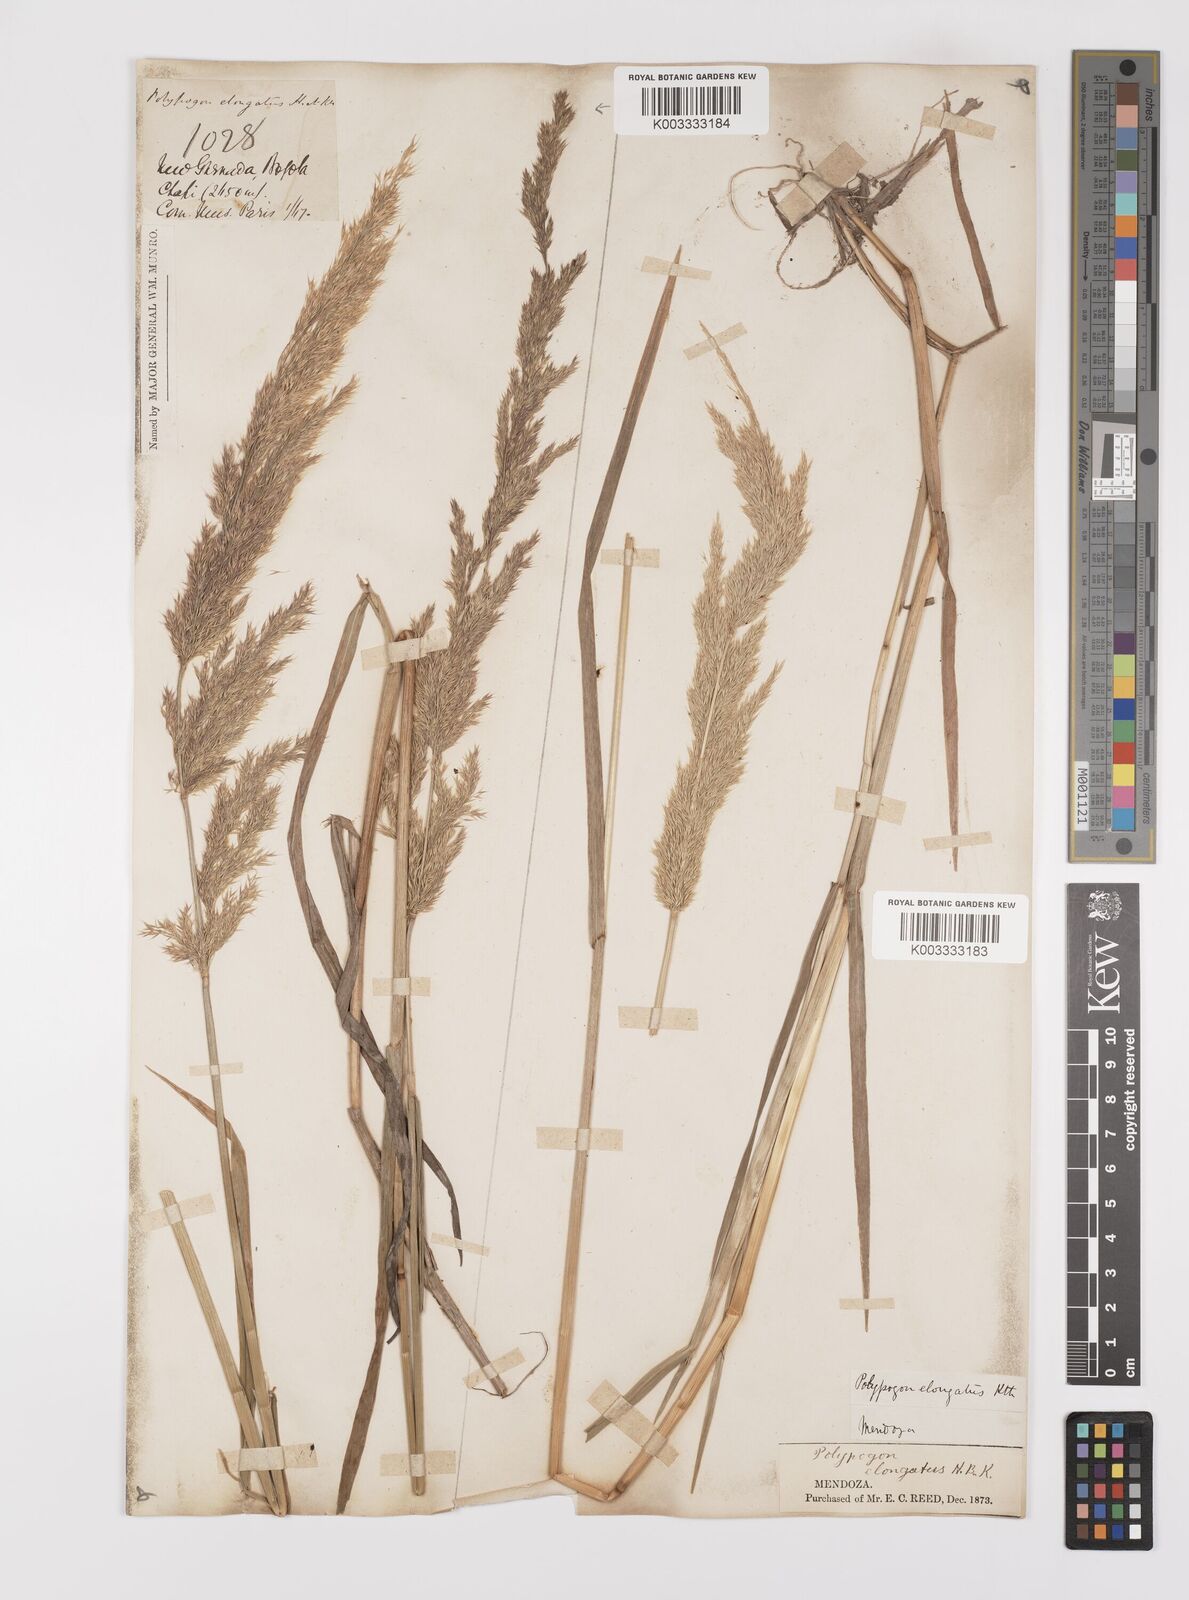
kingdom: Plantae
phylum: Tracheophyta
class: Liliopsida
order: Poales
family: Poaceae
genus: Polypogon
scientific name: Polypogon elongatus
